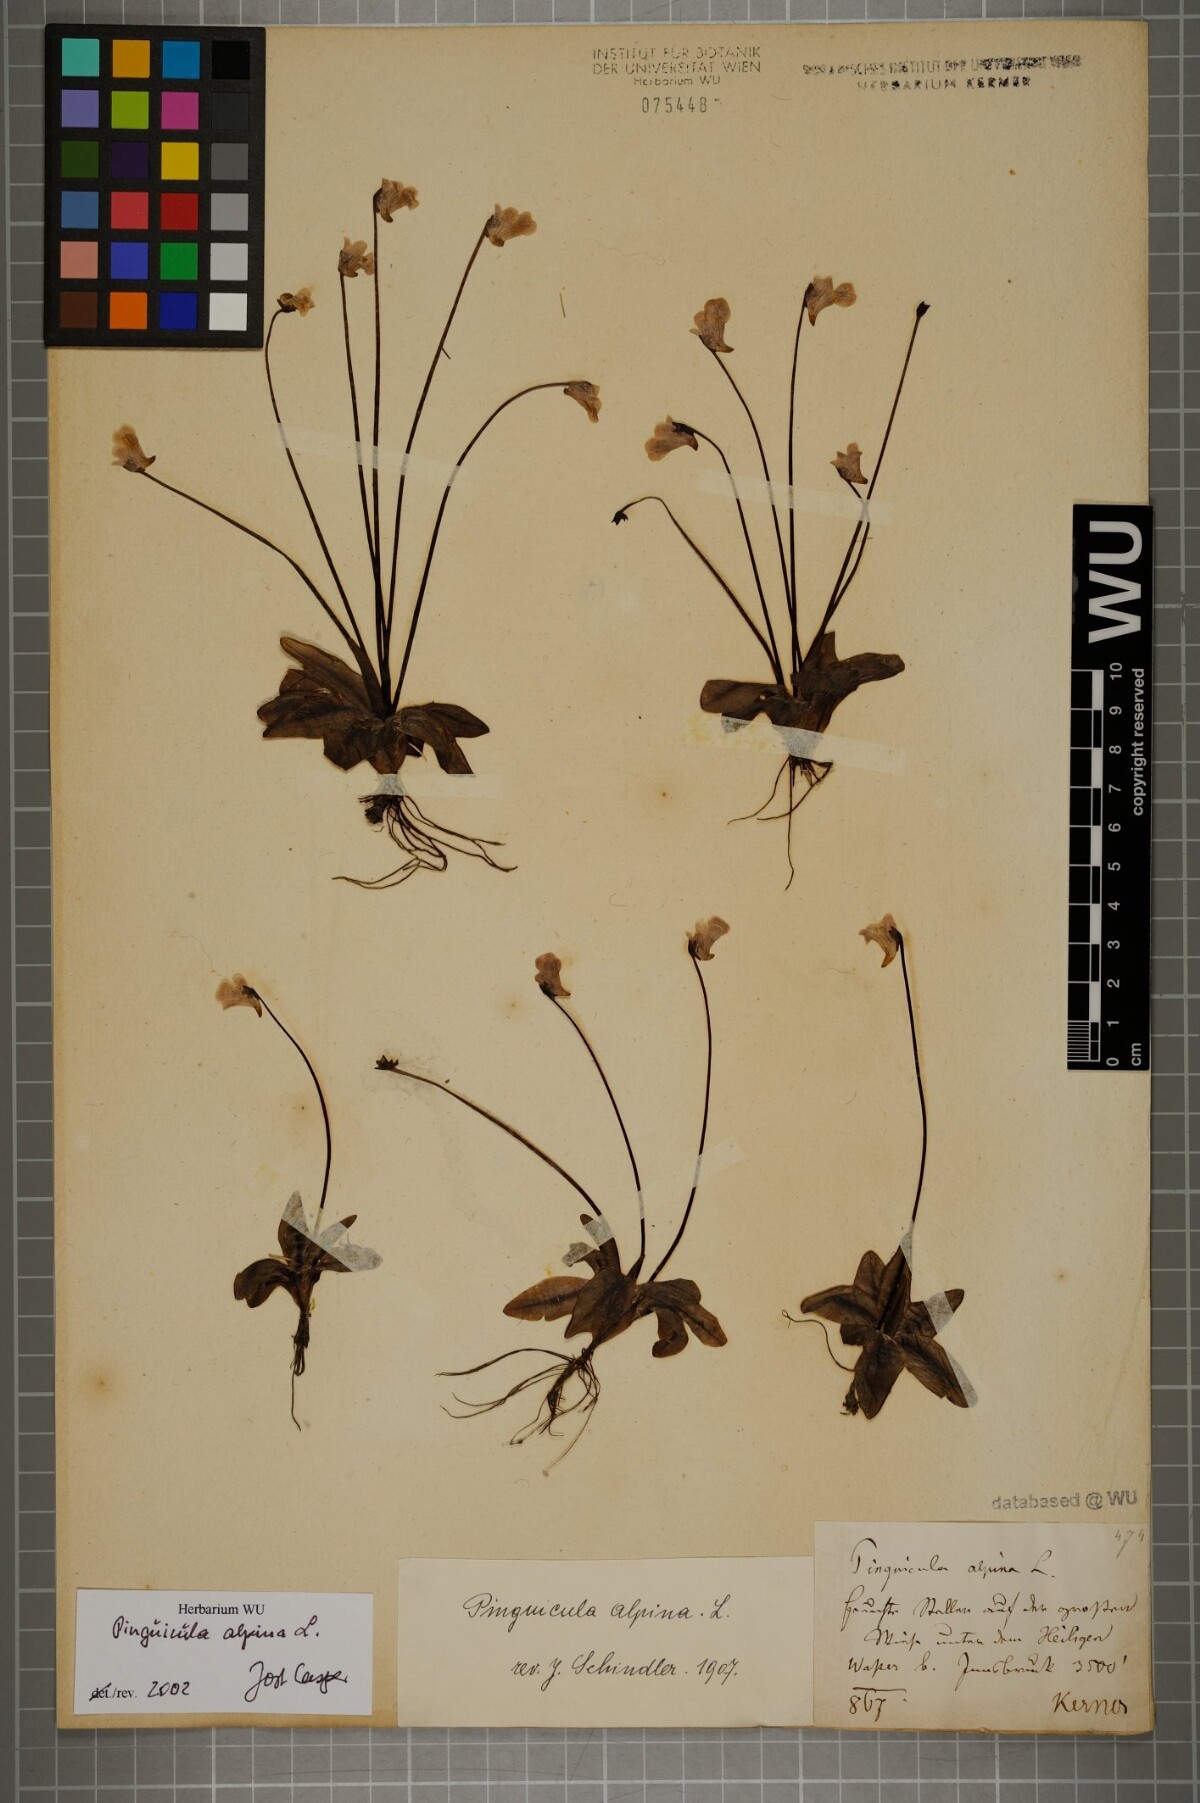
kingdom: Plantae
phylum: Tracheophyta
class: Magnoliopsida
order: Lamiales
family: Lentibulariaceae
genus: Pinguicula
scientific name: Pinguicula alpina
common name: Alpine butterwort
